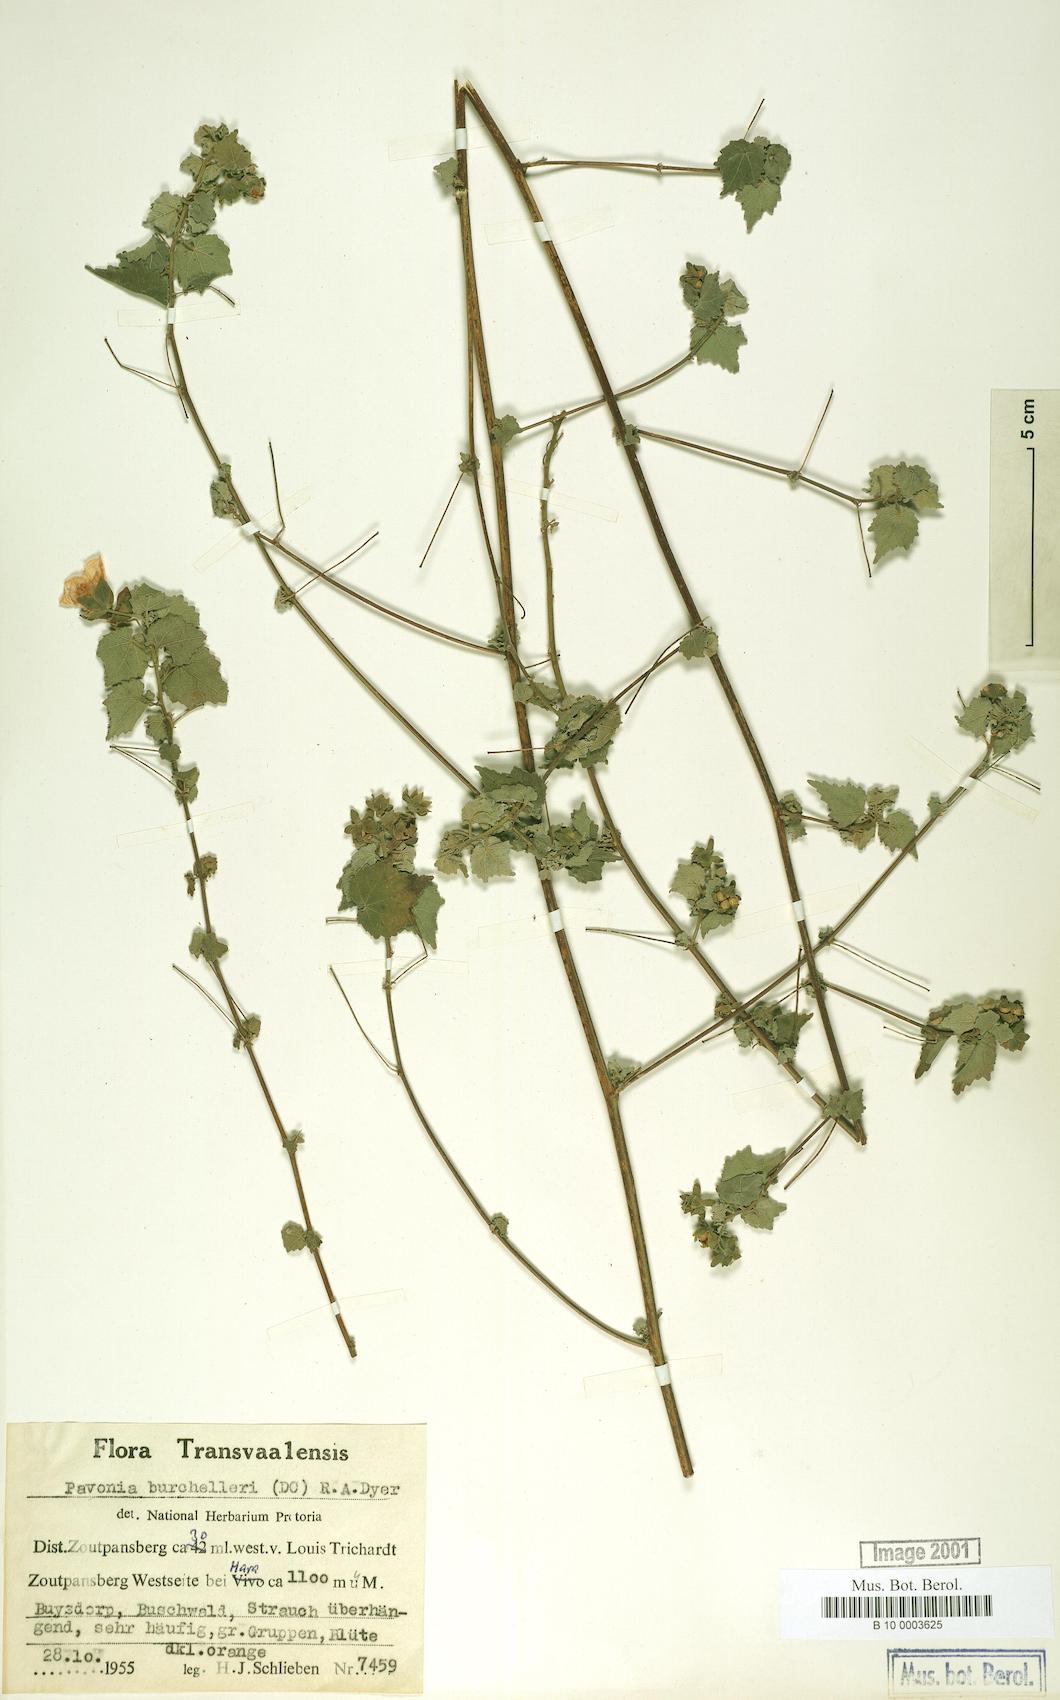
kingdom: Plantae
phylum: Tracheophyta
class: Magnoliopsida
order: Malvales
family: Malvaceae
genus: Pavonia
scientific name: Pavonia burchellii
